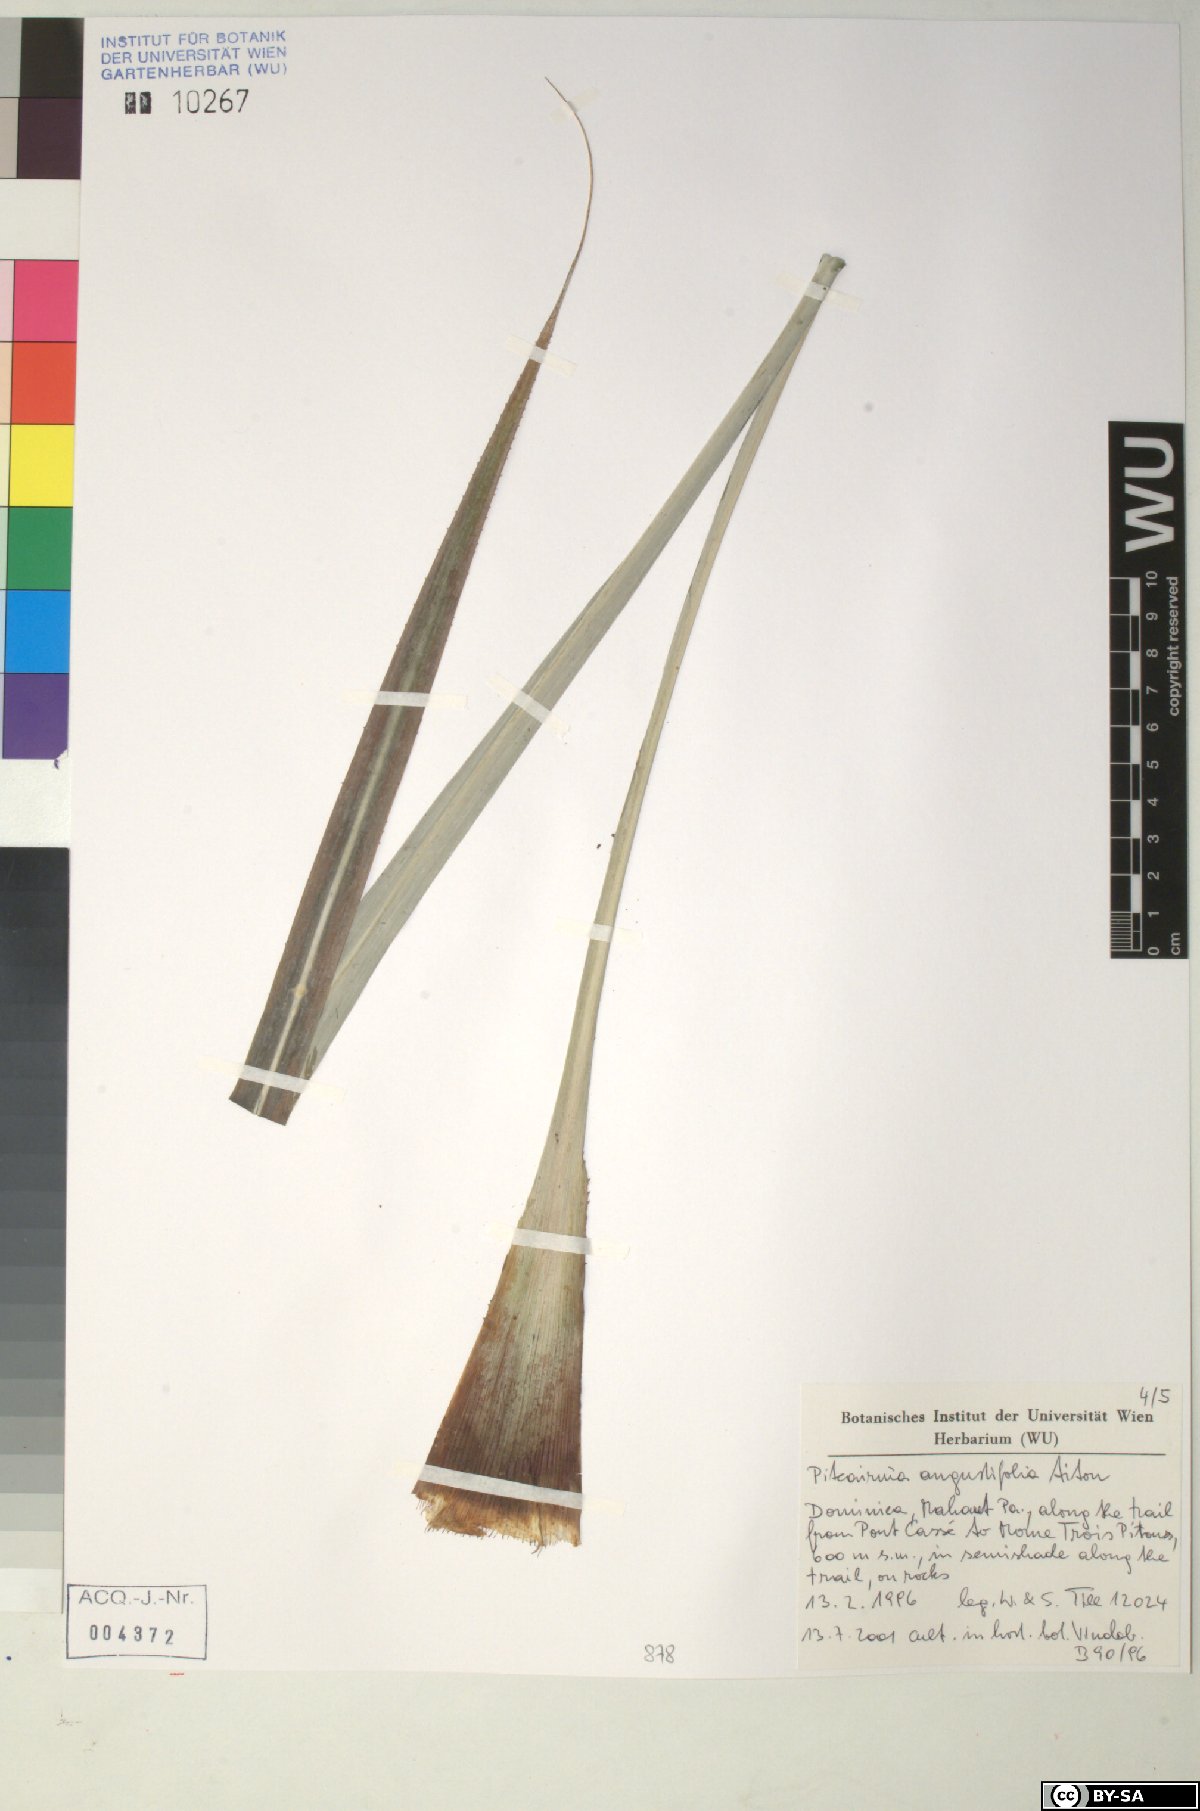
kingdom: Plantae
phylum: Tracheophyta
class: Liliopsida
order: Poales
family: Bromeliaceae
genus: Pitcairnia
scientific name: Pitcairnia angustifolia
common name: Clapper
